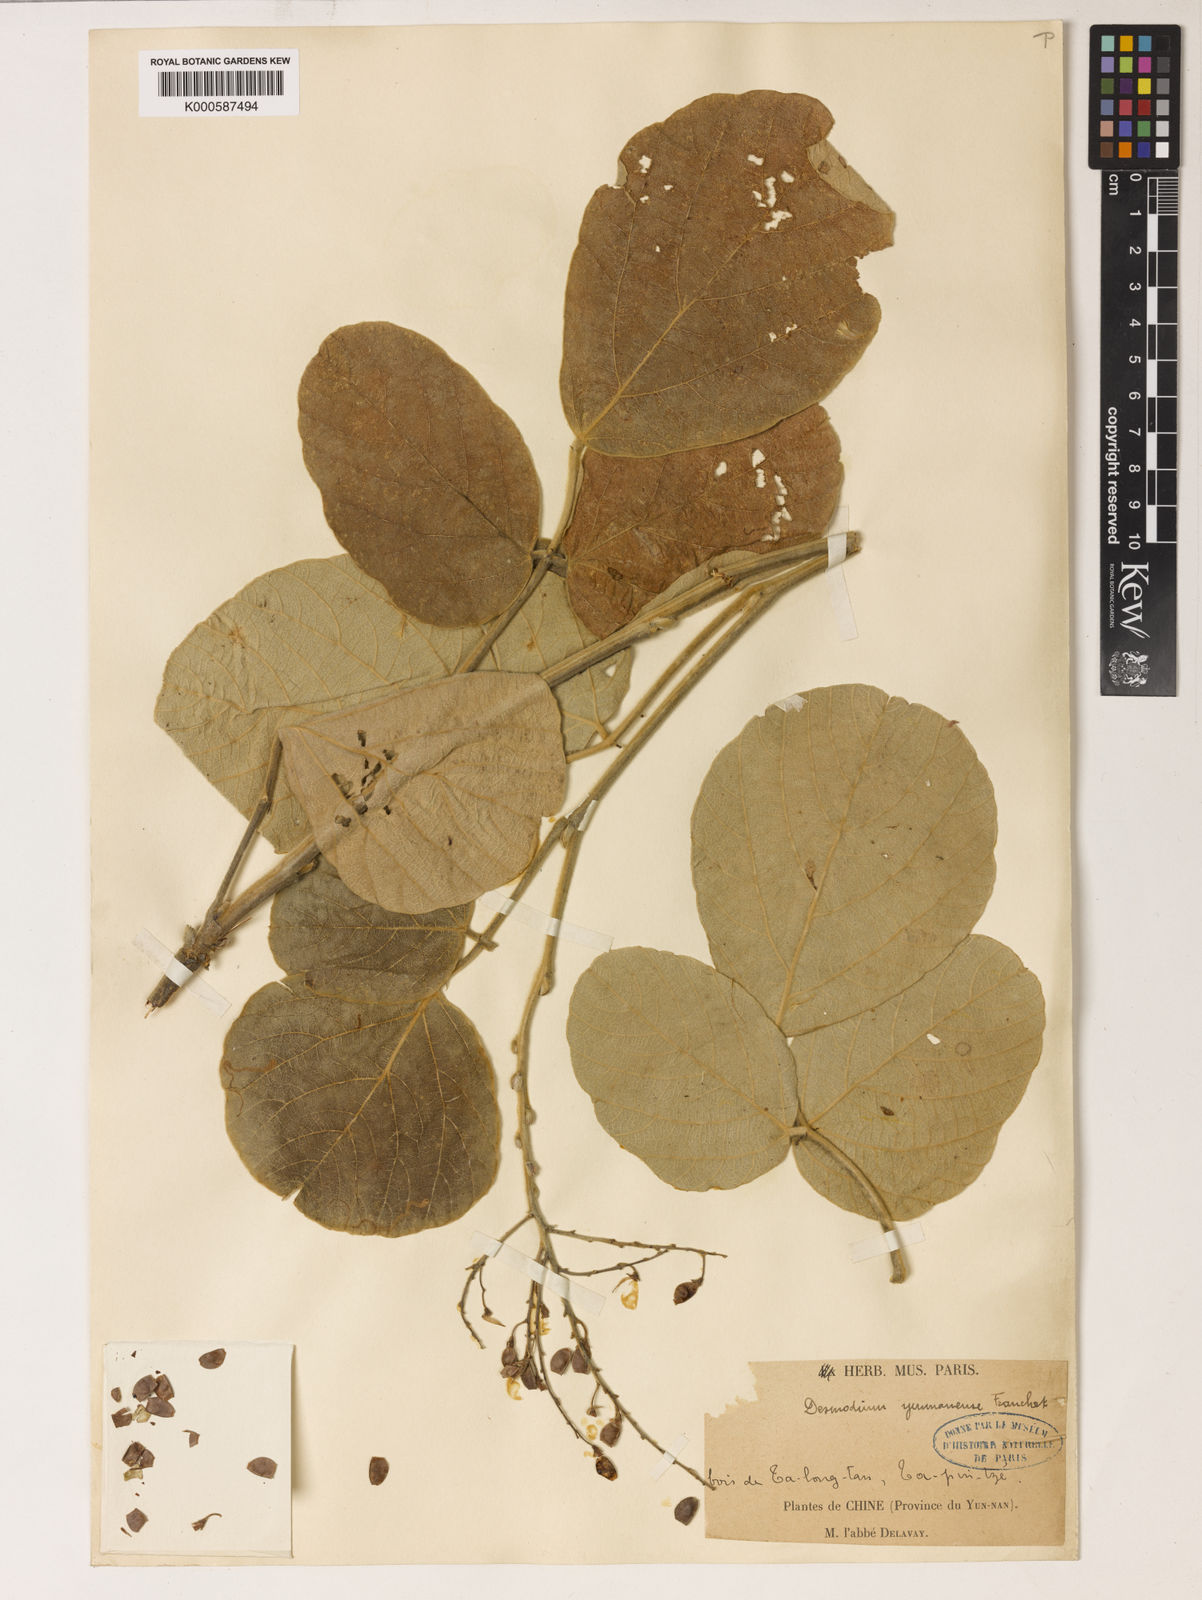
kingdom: Plantae
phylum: Tracheophyta
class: Magnoliopsida
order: Fabales
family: Fabaceae
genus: Sunhangia
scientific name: Sunhangia yunnanensis
